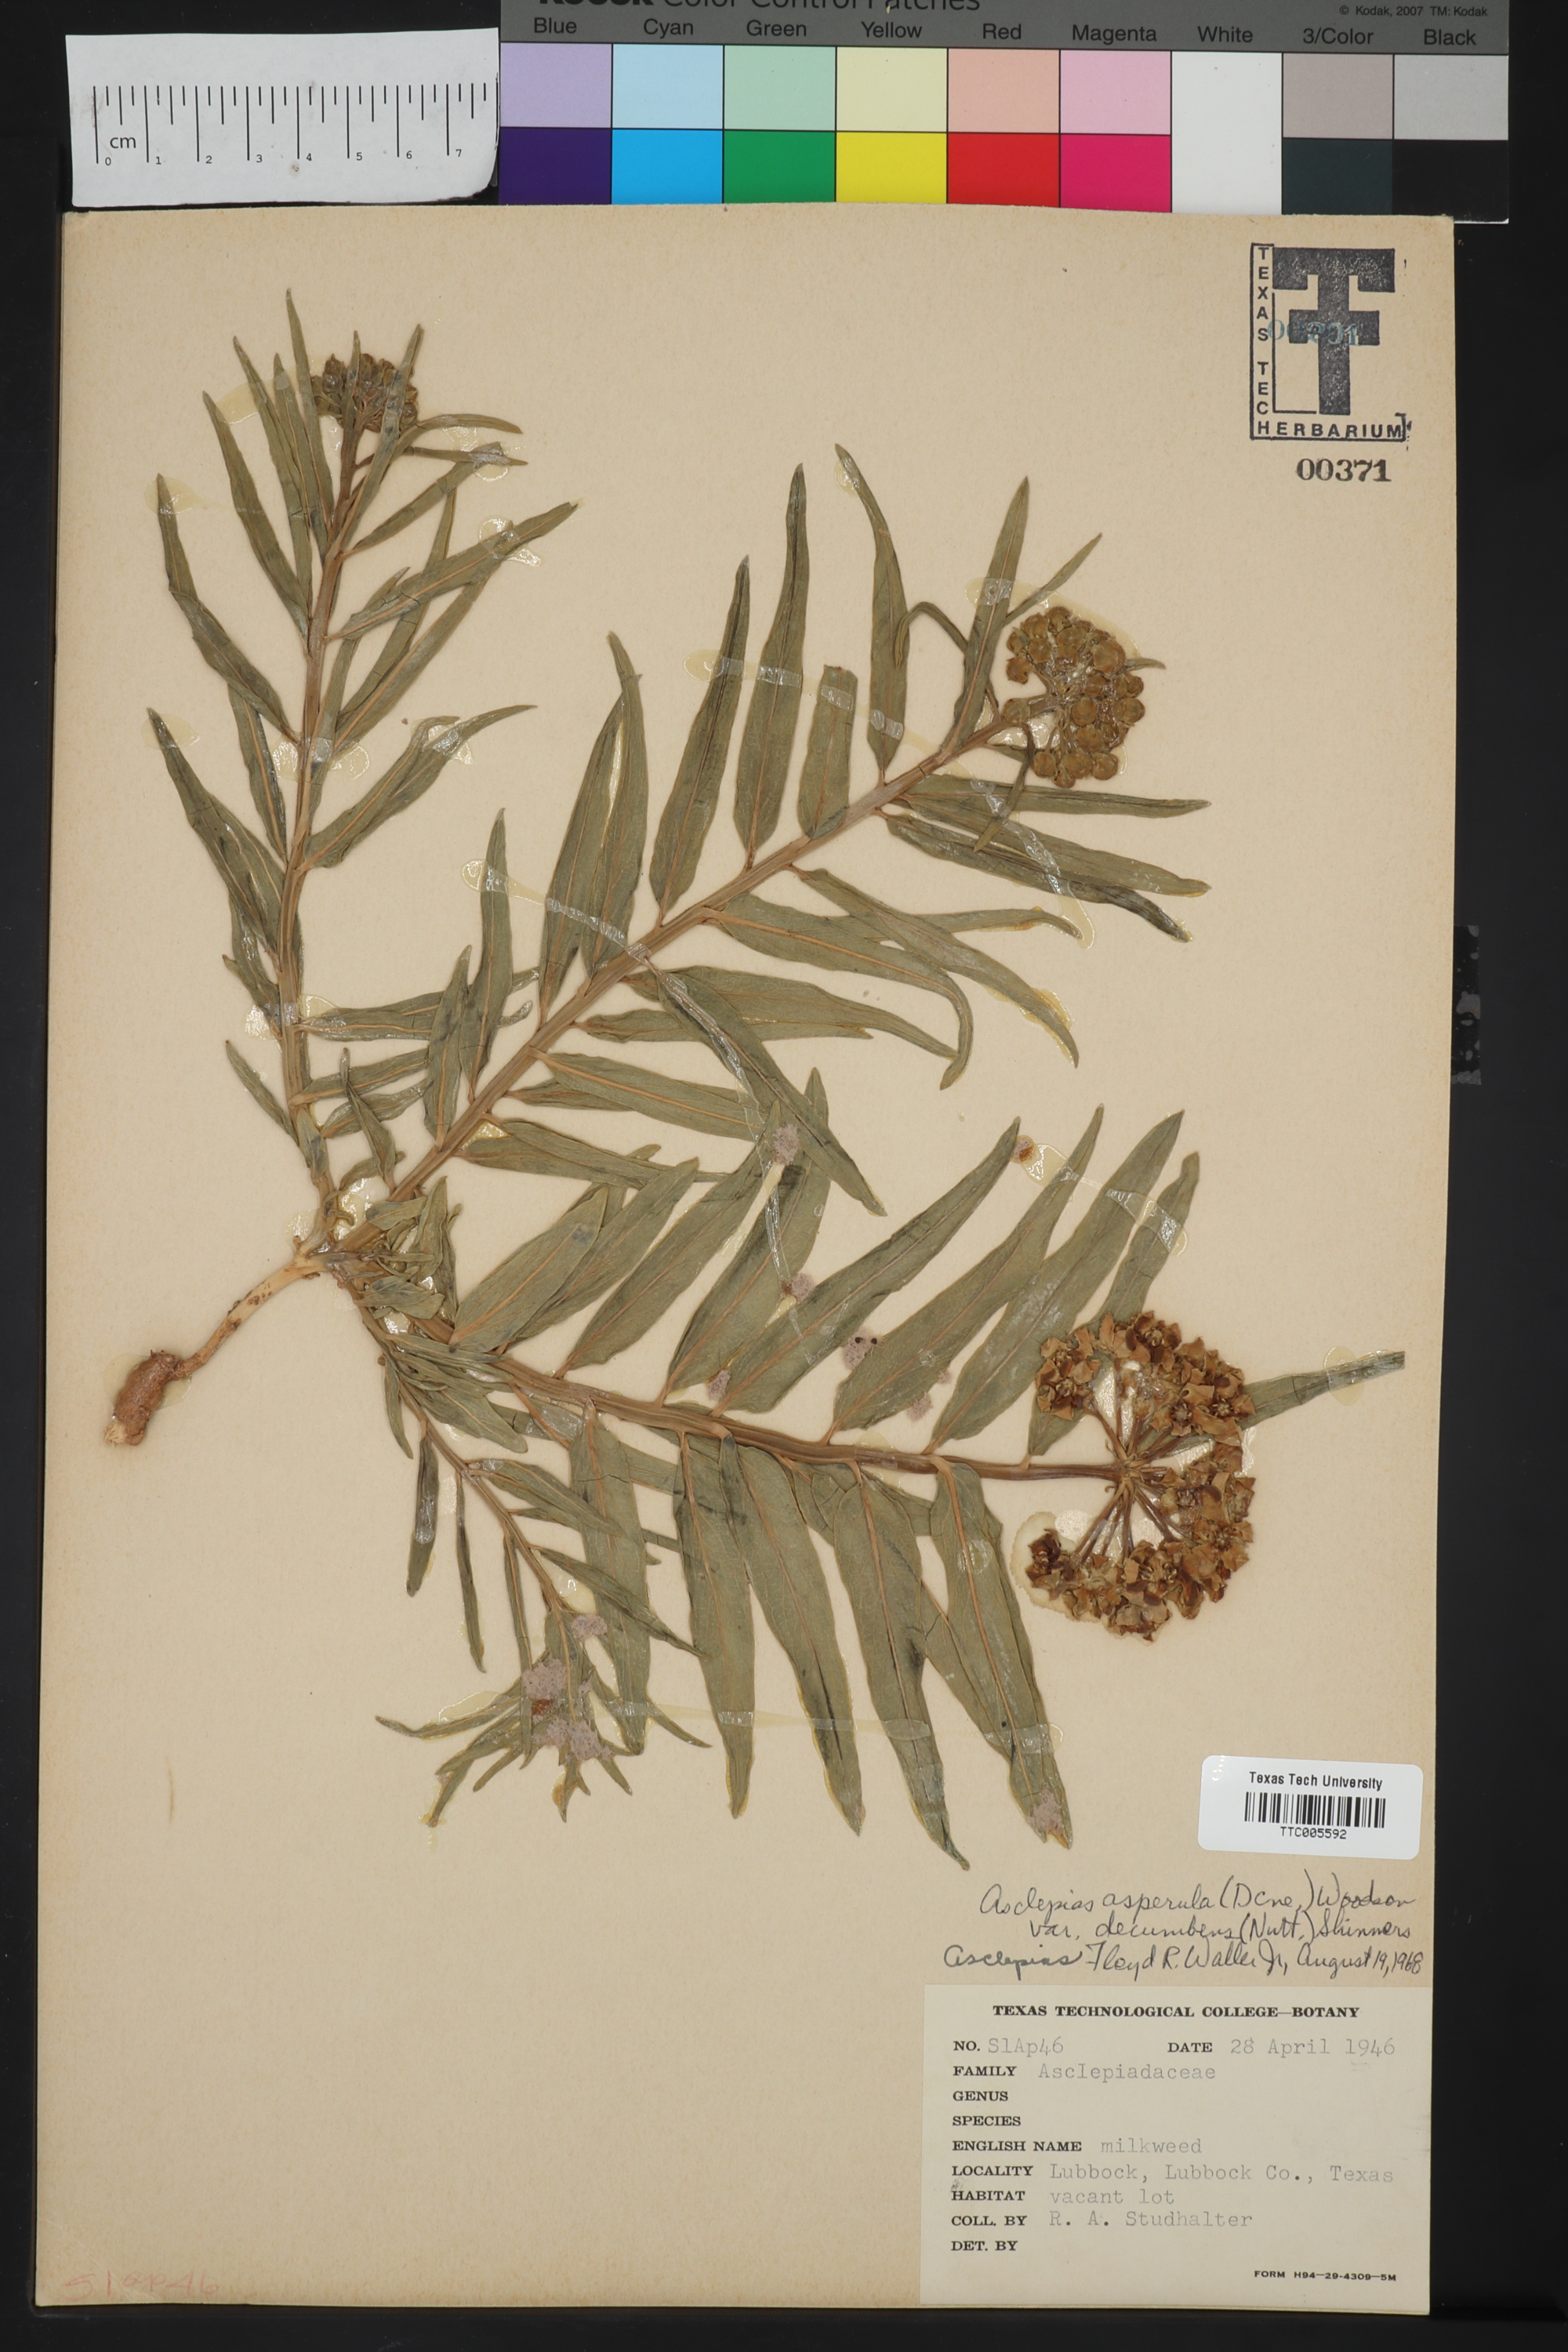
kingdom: Plantae
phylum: Tracheophyta
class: Magnoliopsida
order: Gentianales
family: Apocynaceae
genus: Asclepias
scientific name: Asclepias asperula
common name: Antelope horns
